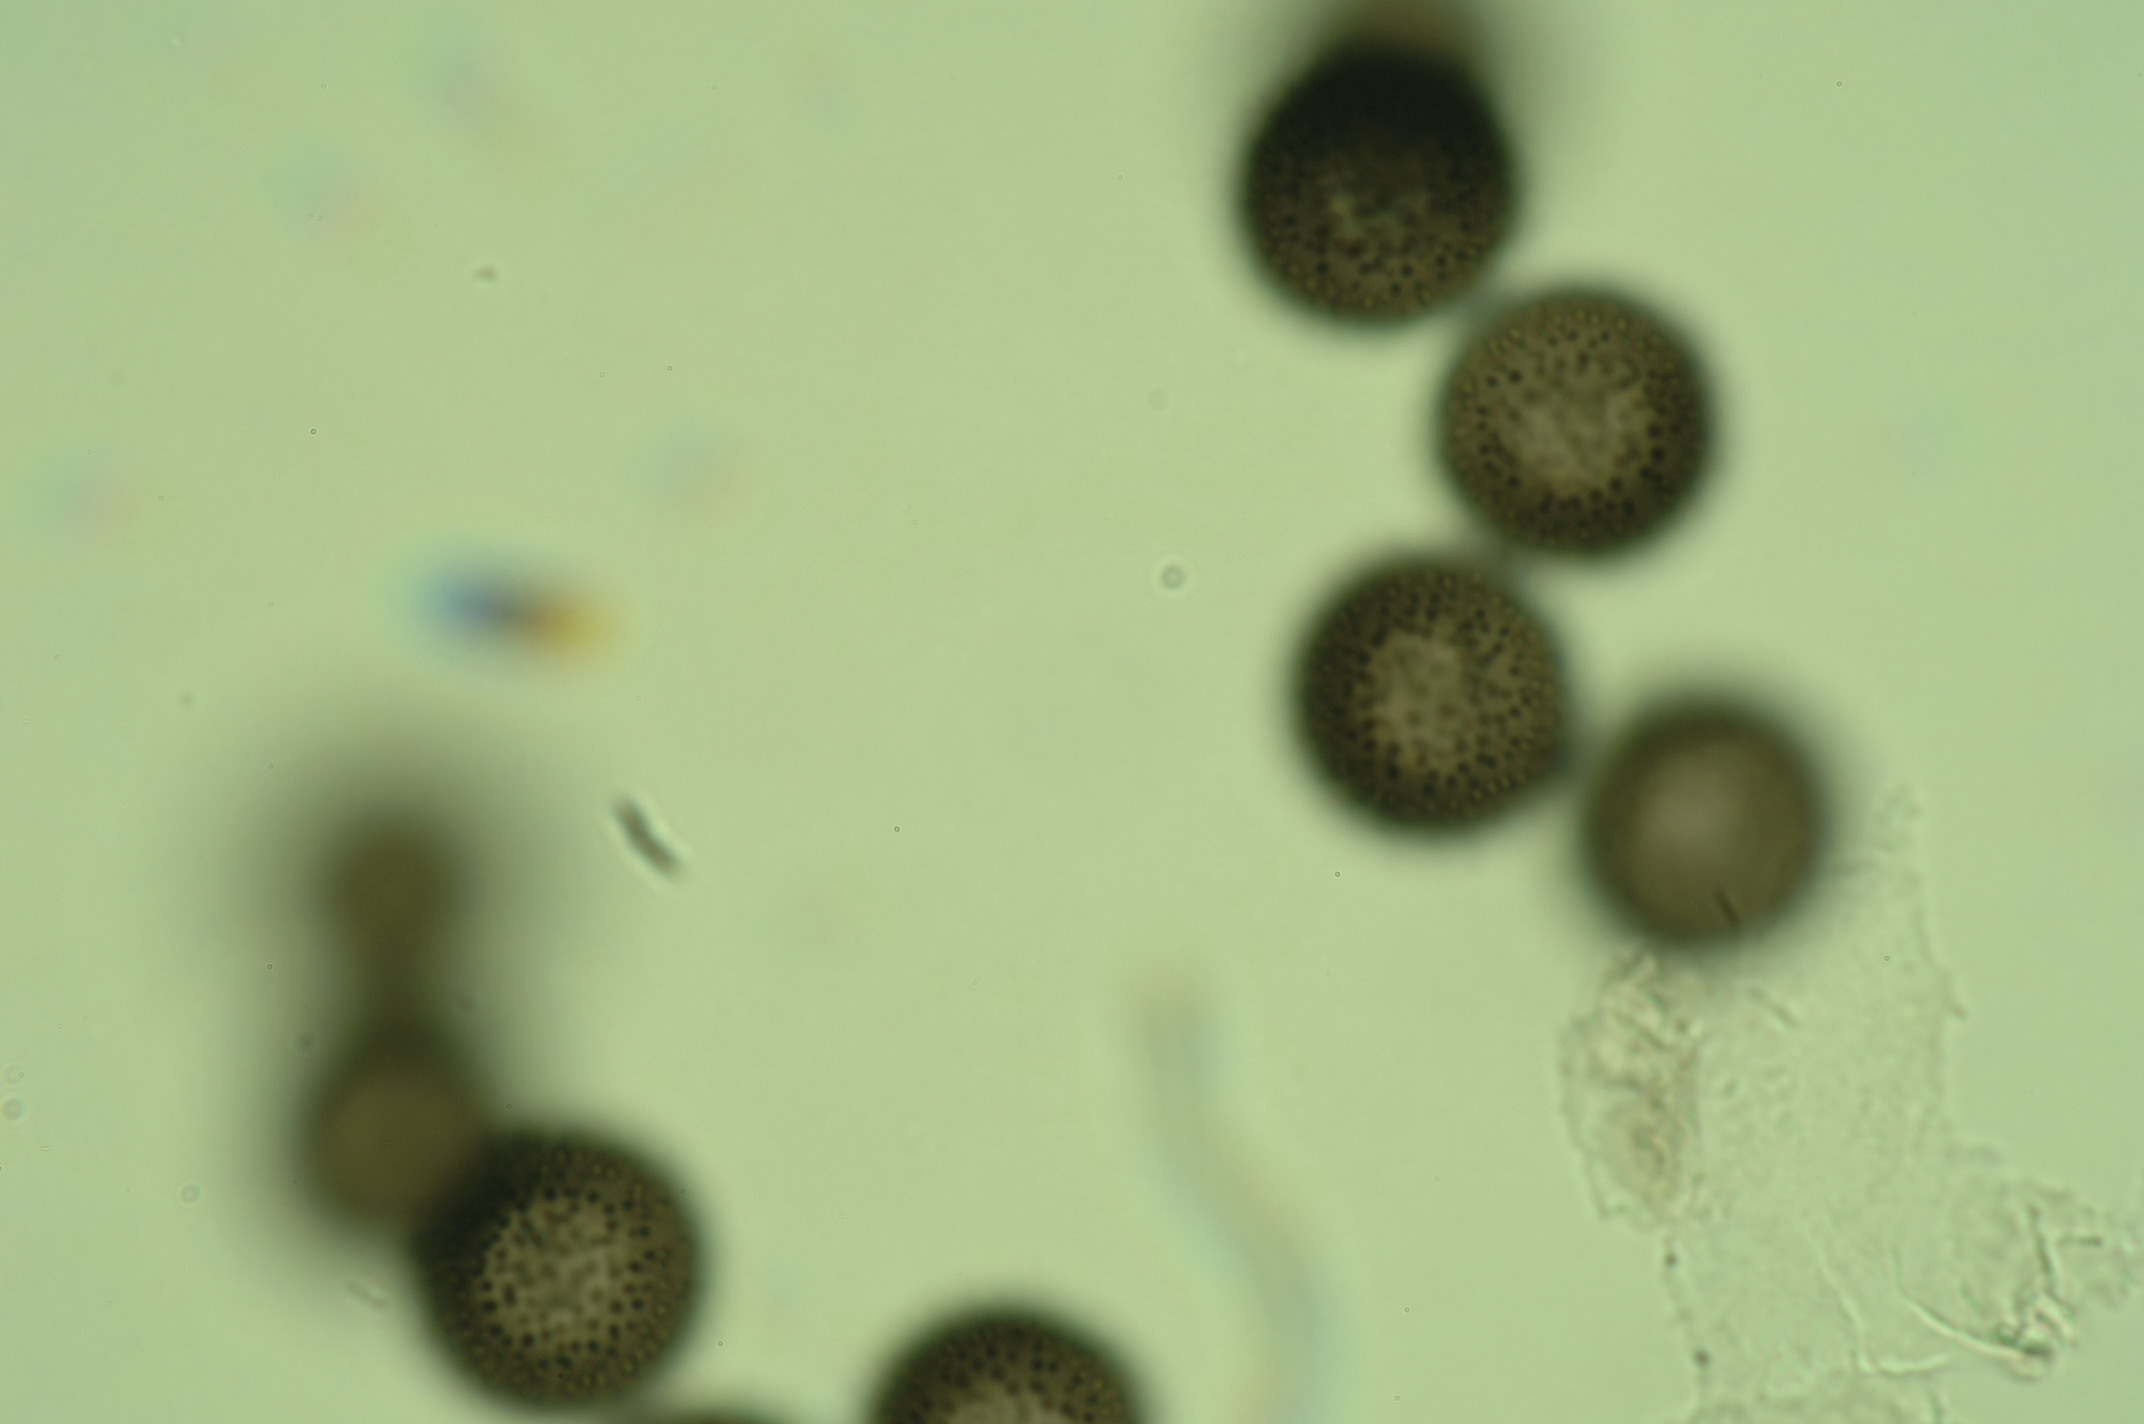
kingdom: Protozoa
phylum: Mycetozoa
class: Myxomycetes
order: Stemonitidales
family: Stemonitidaceae
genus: Lamproderma
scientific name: Lamproderma granulosum
